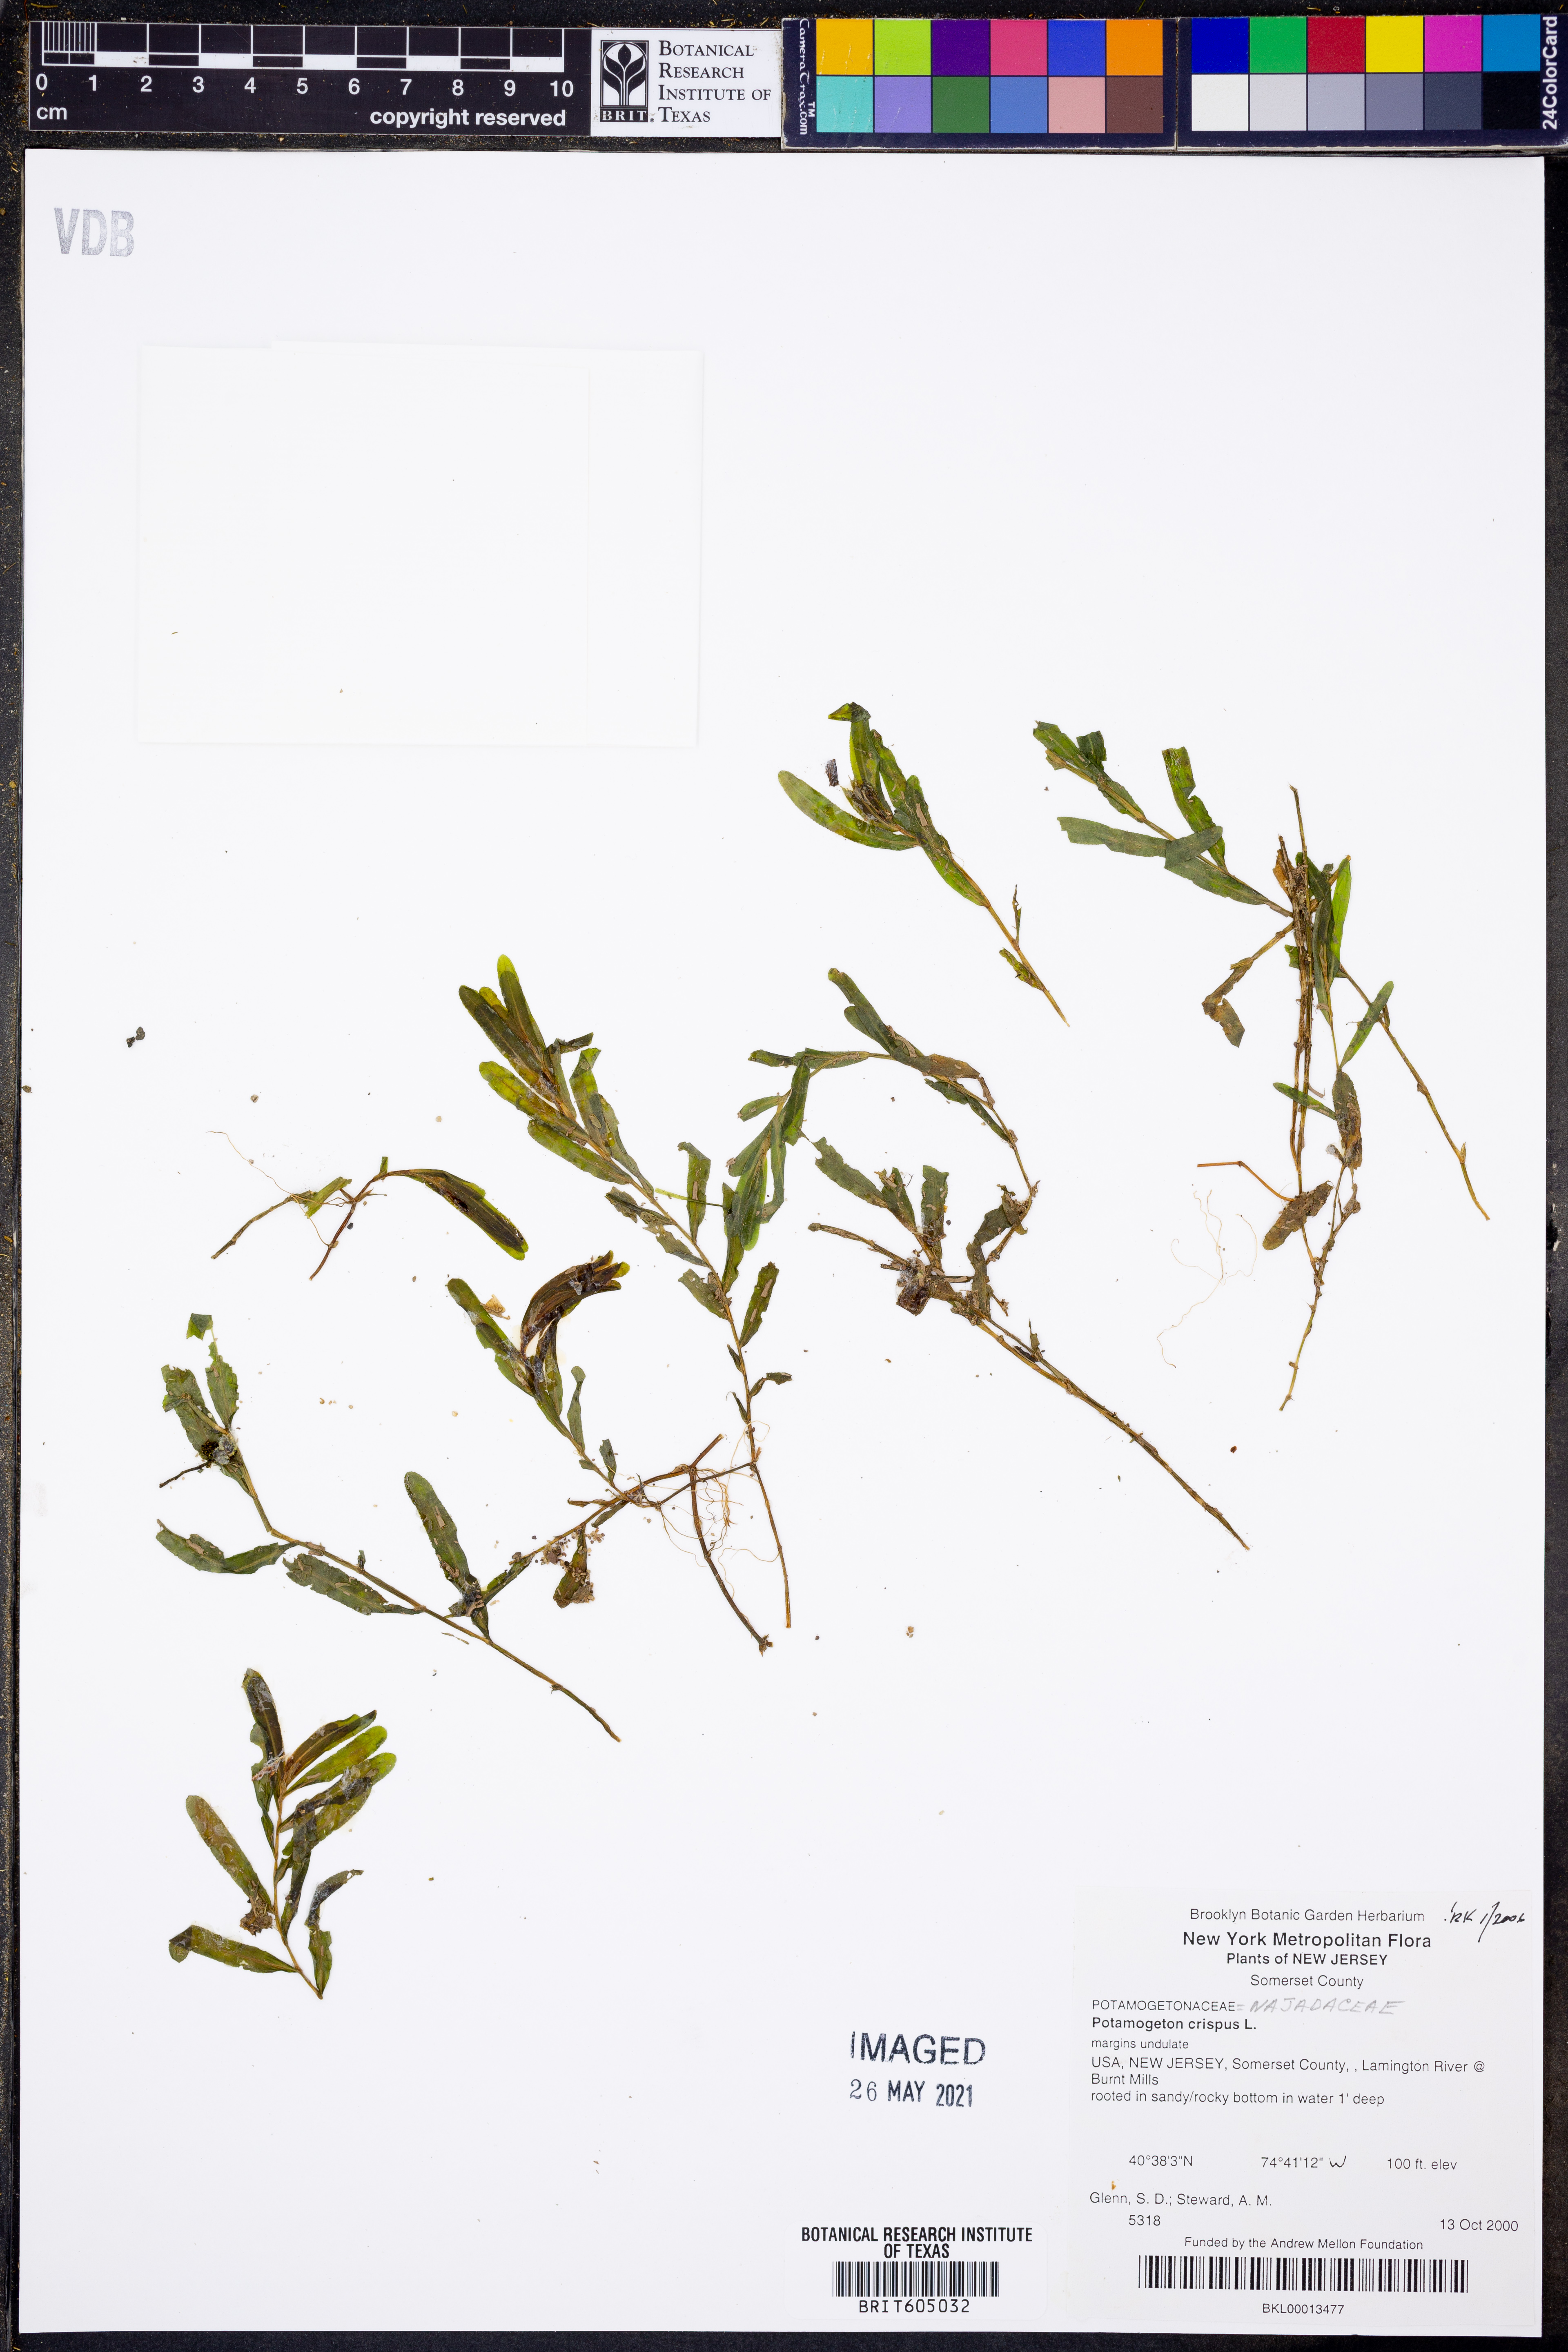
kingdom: Plantae
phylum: Tracheophyta
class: Liliopsida
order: Alismatales
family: Potamogetonaceae
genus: Potamogeton
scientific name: Potamogeton crispus
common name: Curled pondweed
